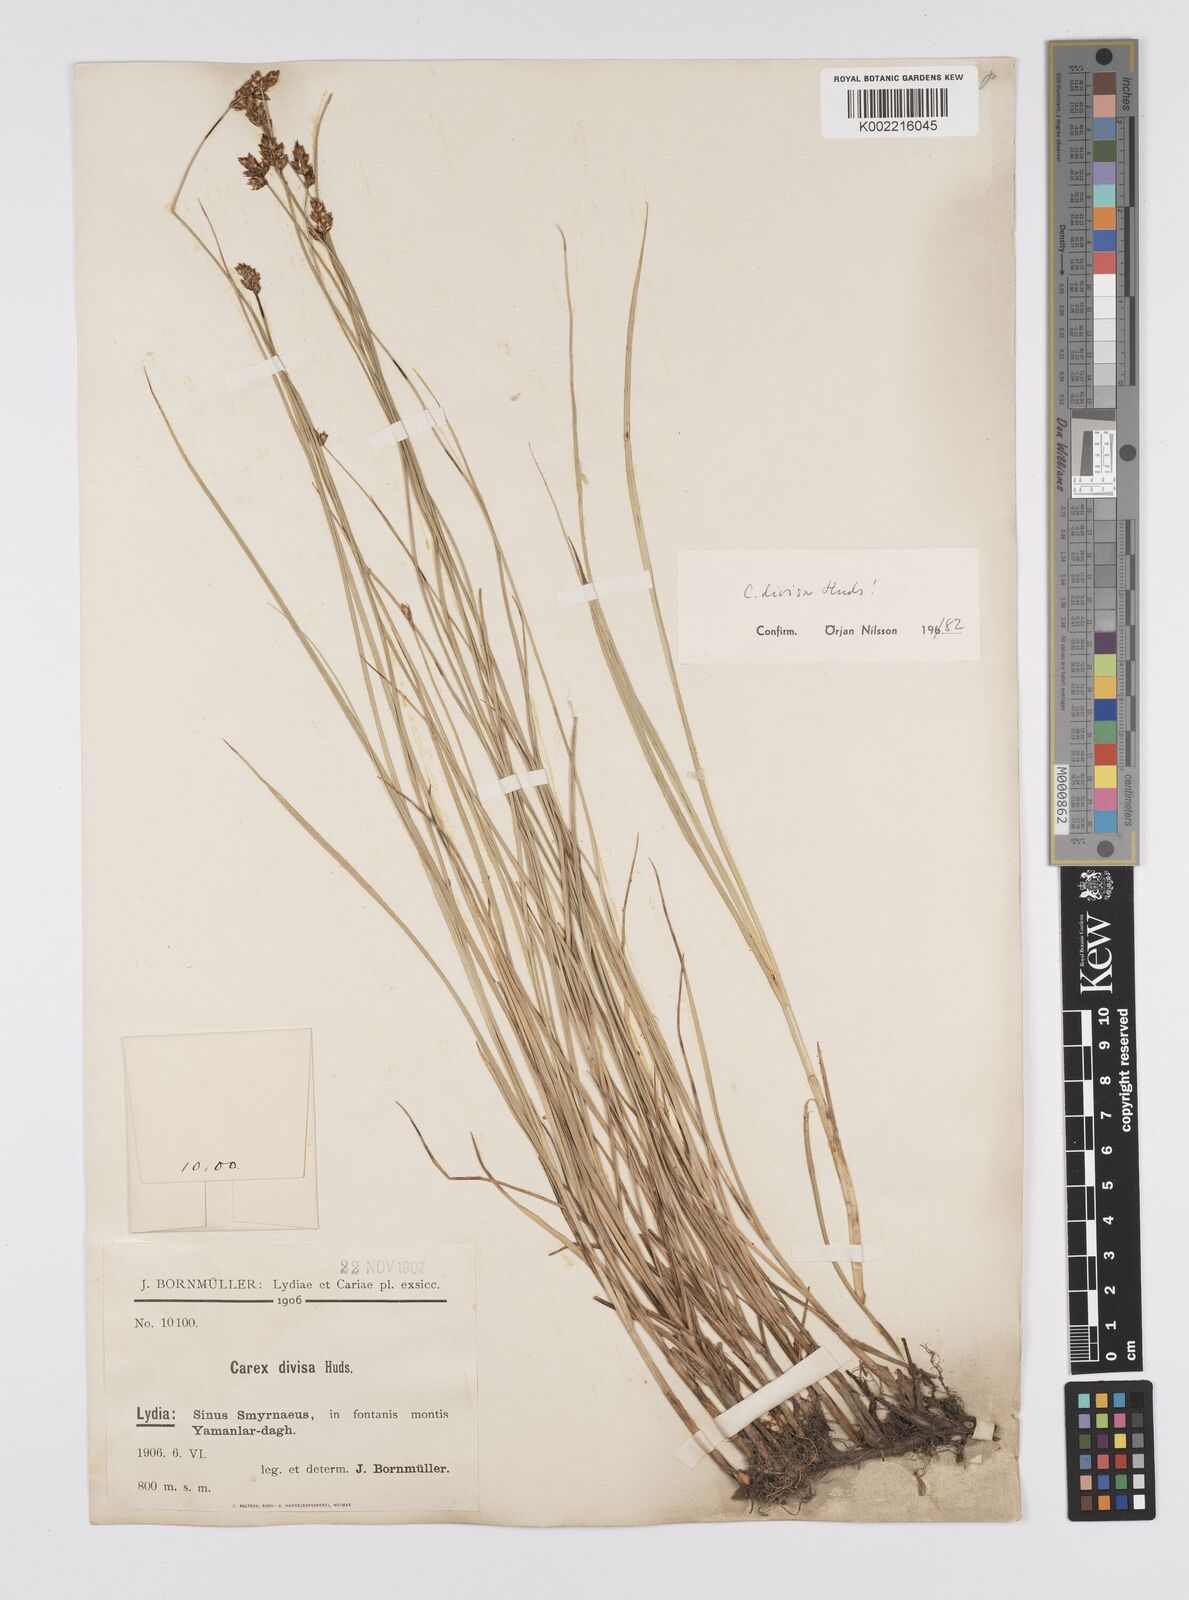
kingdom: Plantae
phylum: Tracheophyta
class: Liliopsida
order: Poales
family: Cyperaceae
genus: Carex
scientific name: Carex divisa
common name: Divided sedge
